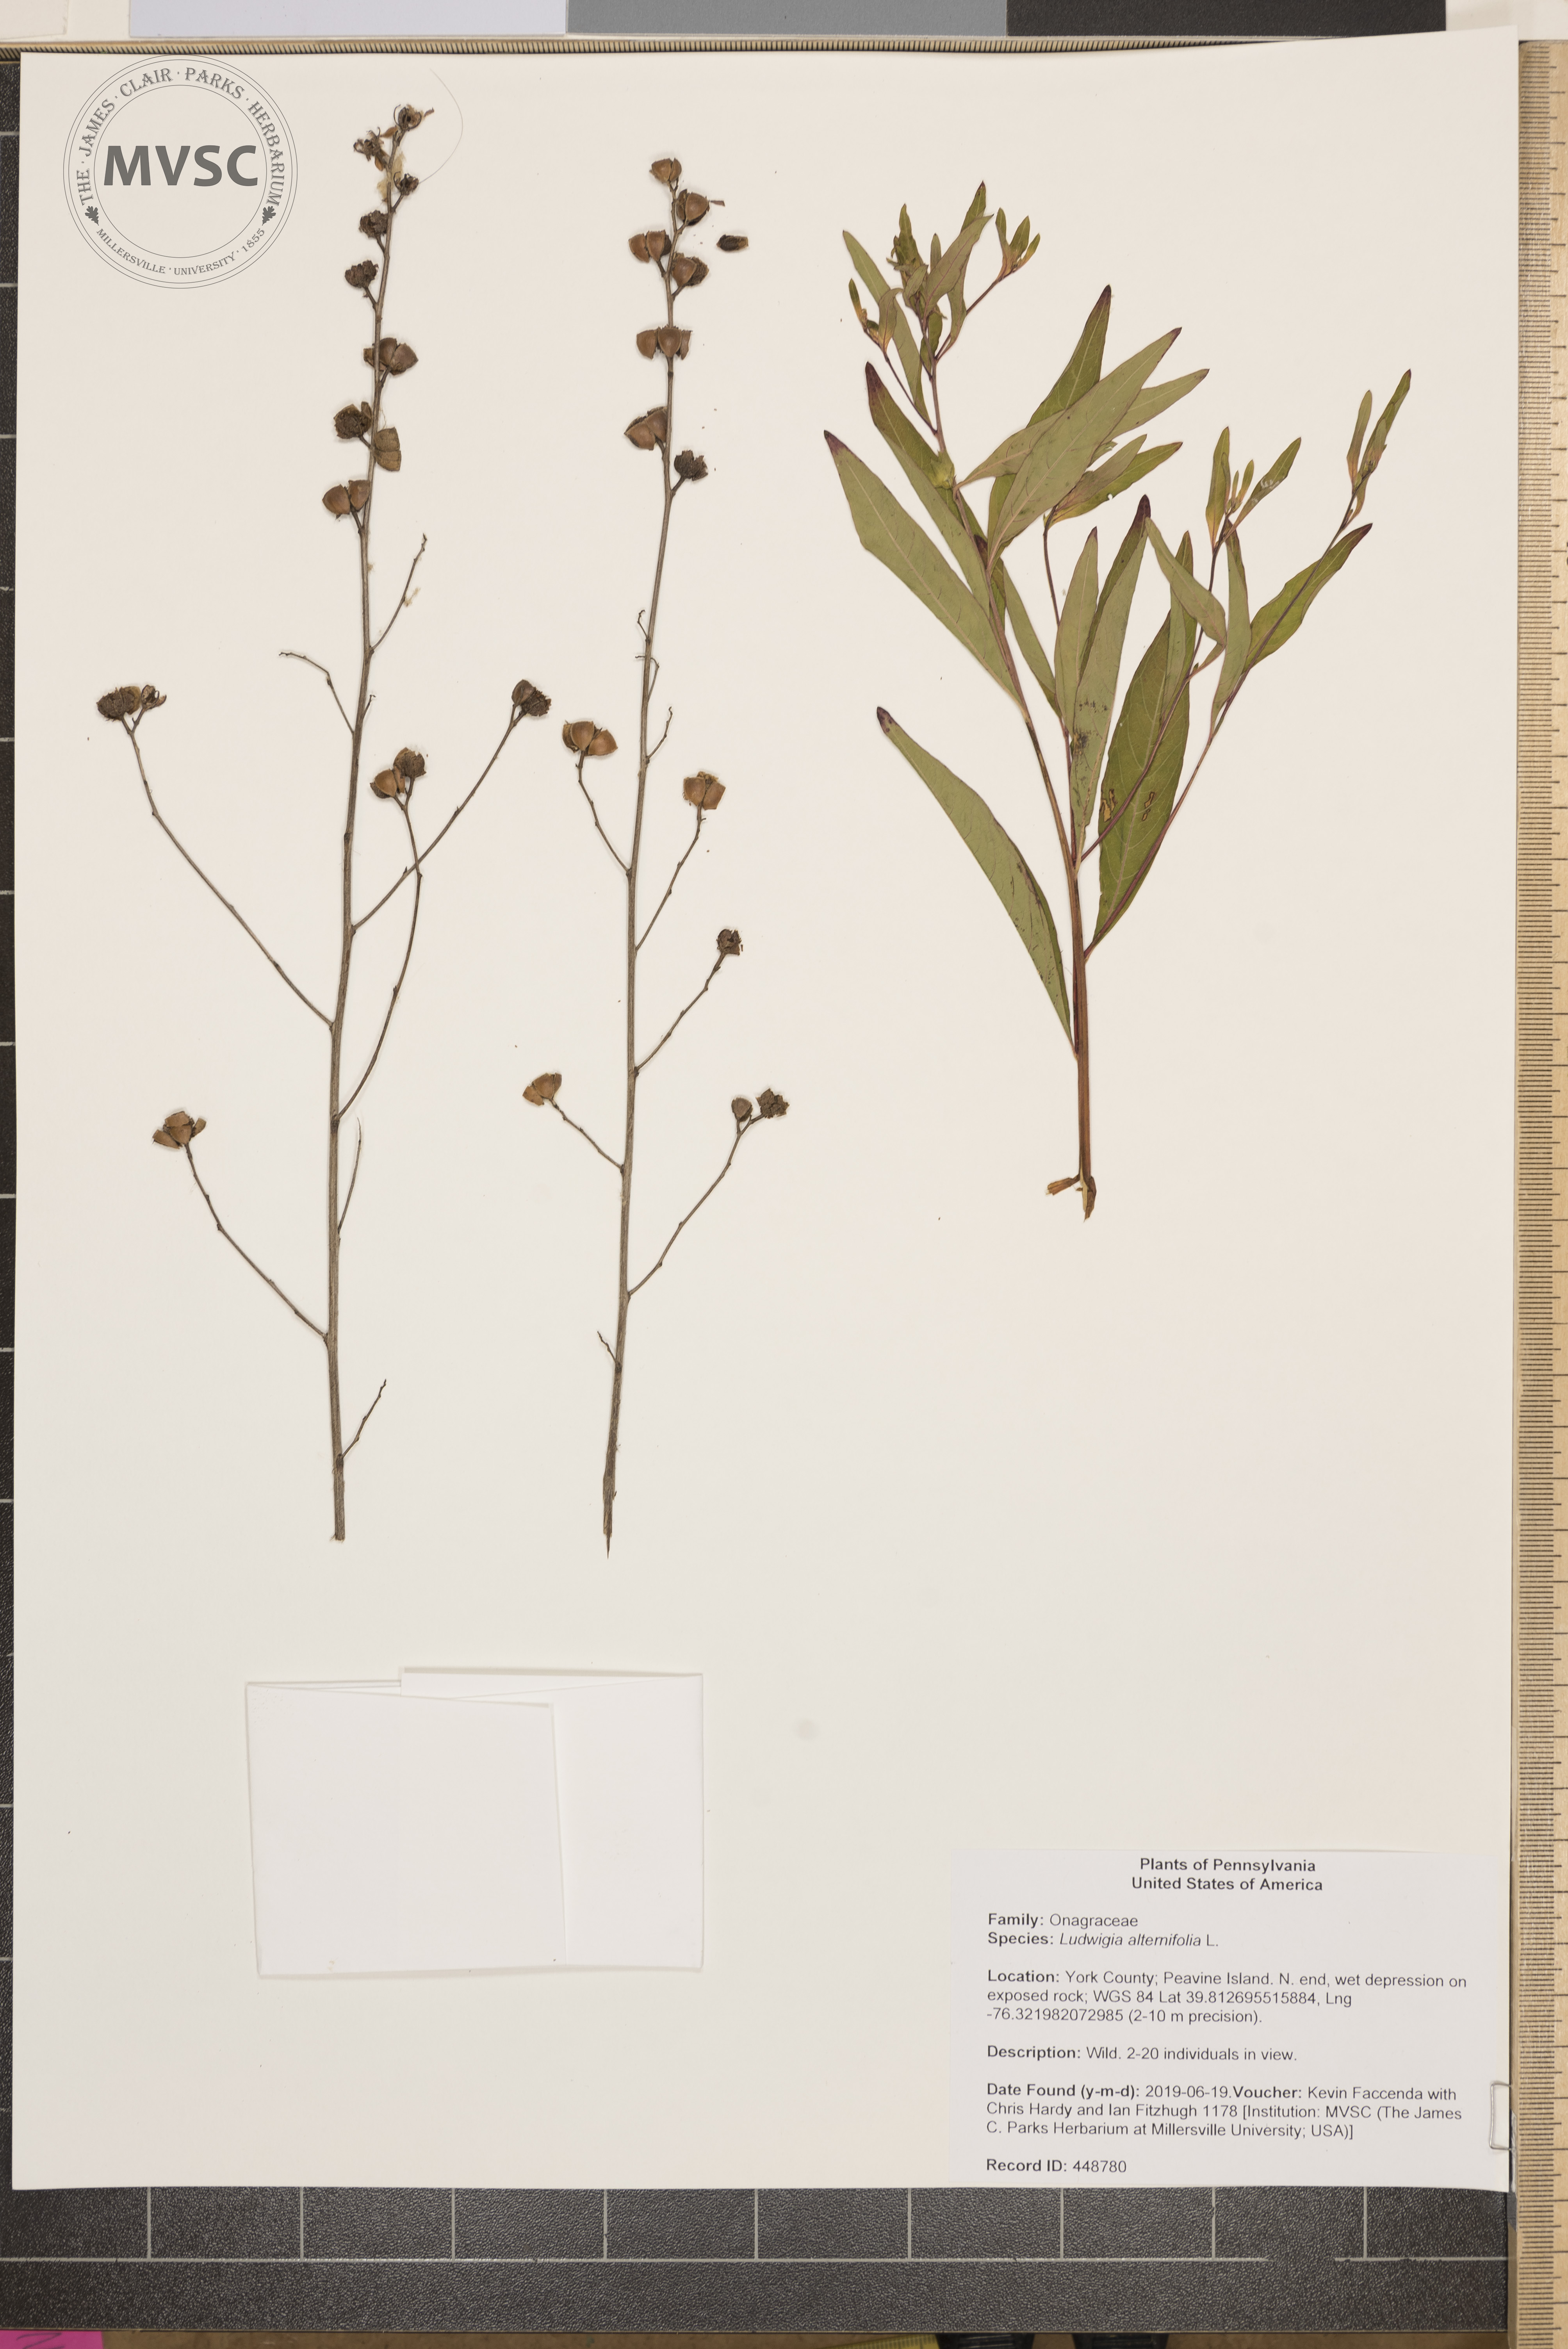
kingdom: Plantae
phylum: Tracheophyta
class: Magnoliopsida
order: Myrtales
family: Onagraceae
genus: Ludwigia
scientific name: Ludwigia alternifolia
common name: Rattlebox
